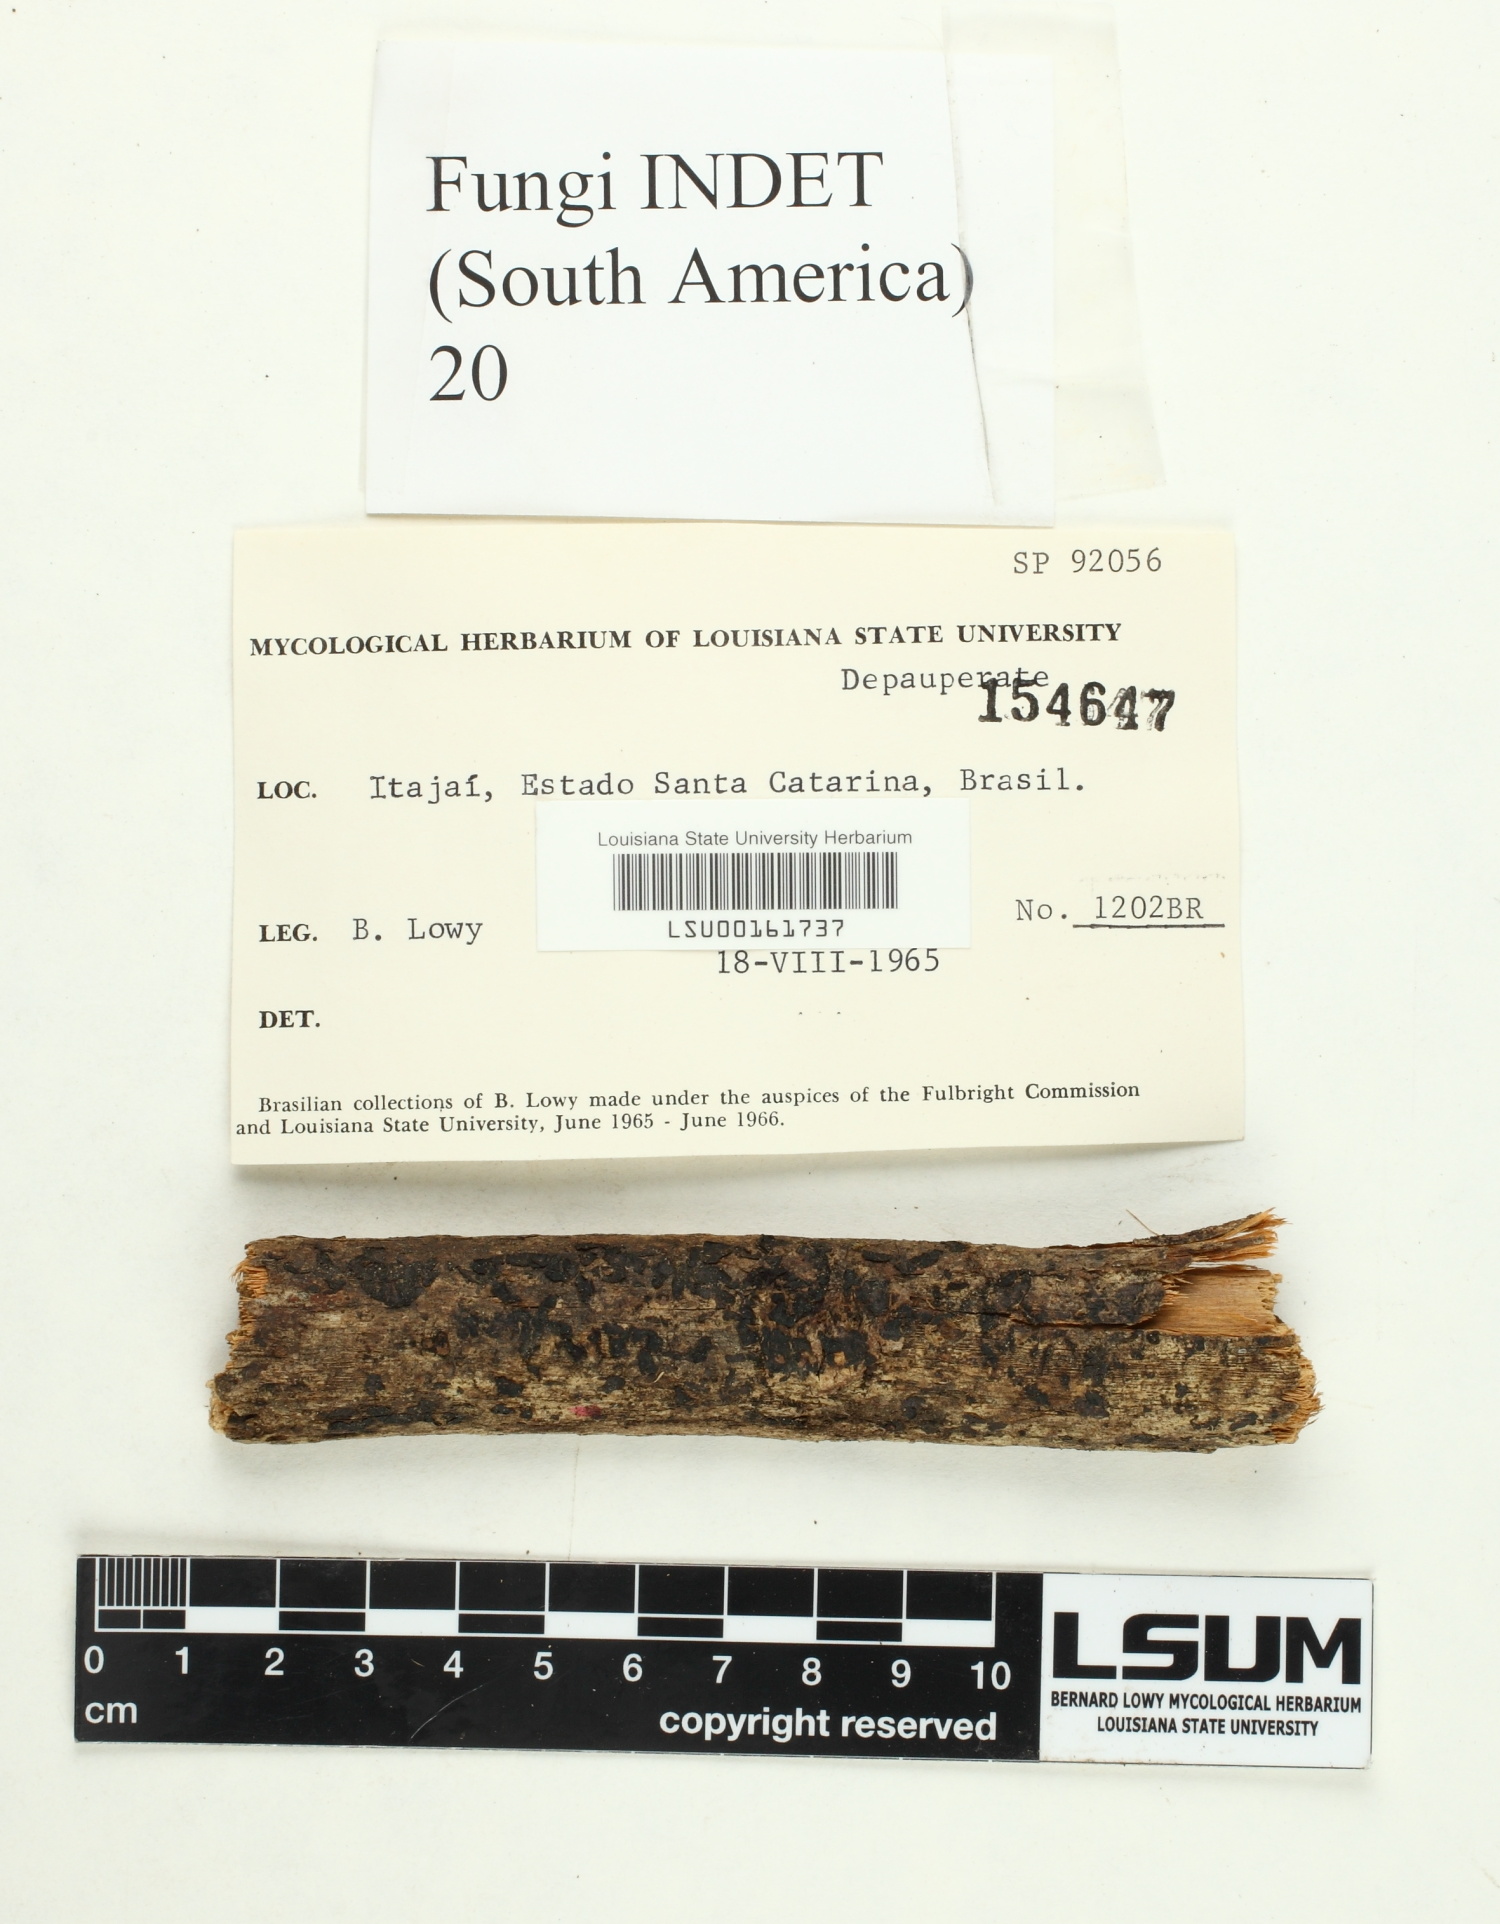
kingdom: Fungi
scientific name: Fungi
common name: Fungi
